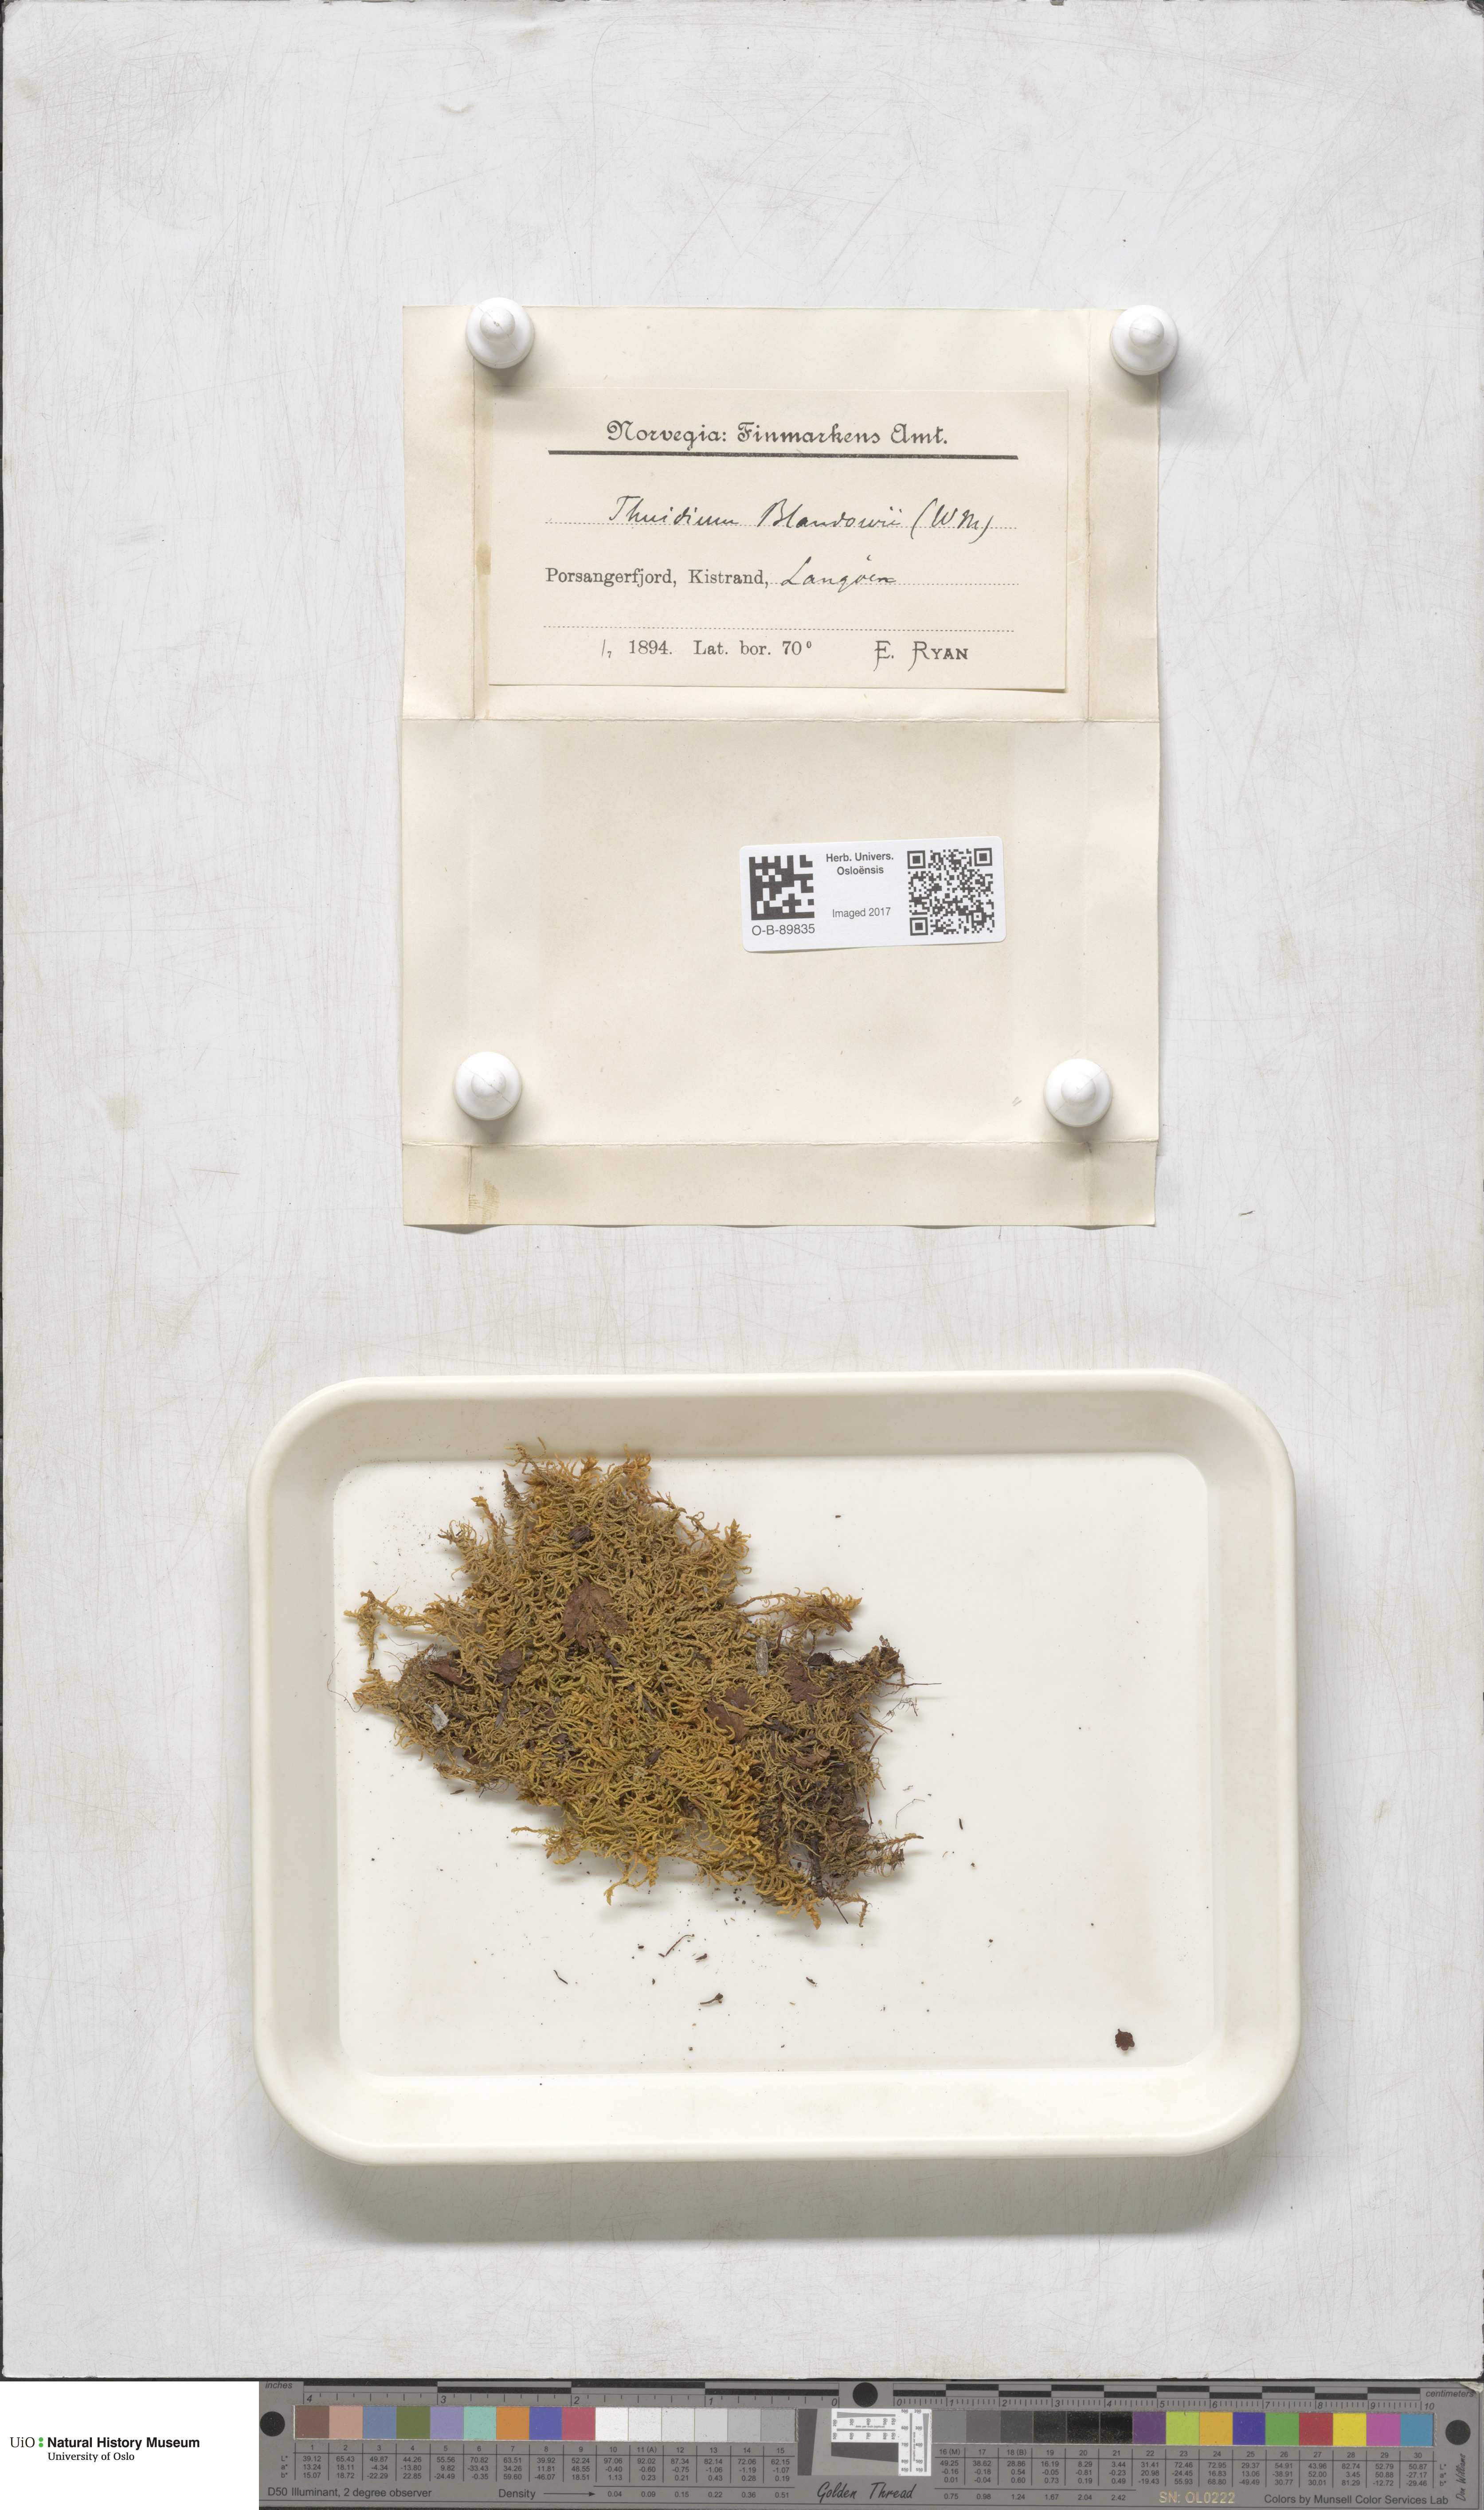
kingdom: Plantae
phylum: Bryophyta
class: Bryopsida
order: Hypnales
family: Helodiaceae
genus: Helodium
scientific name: Helodium blandowii
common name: Blandow's tamarisk-moss
